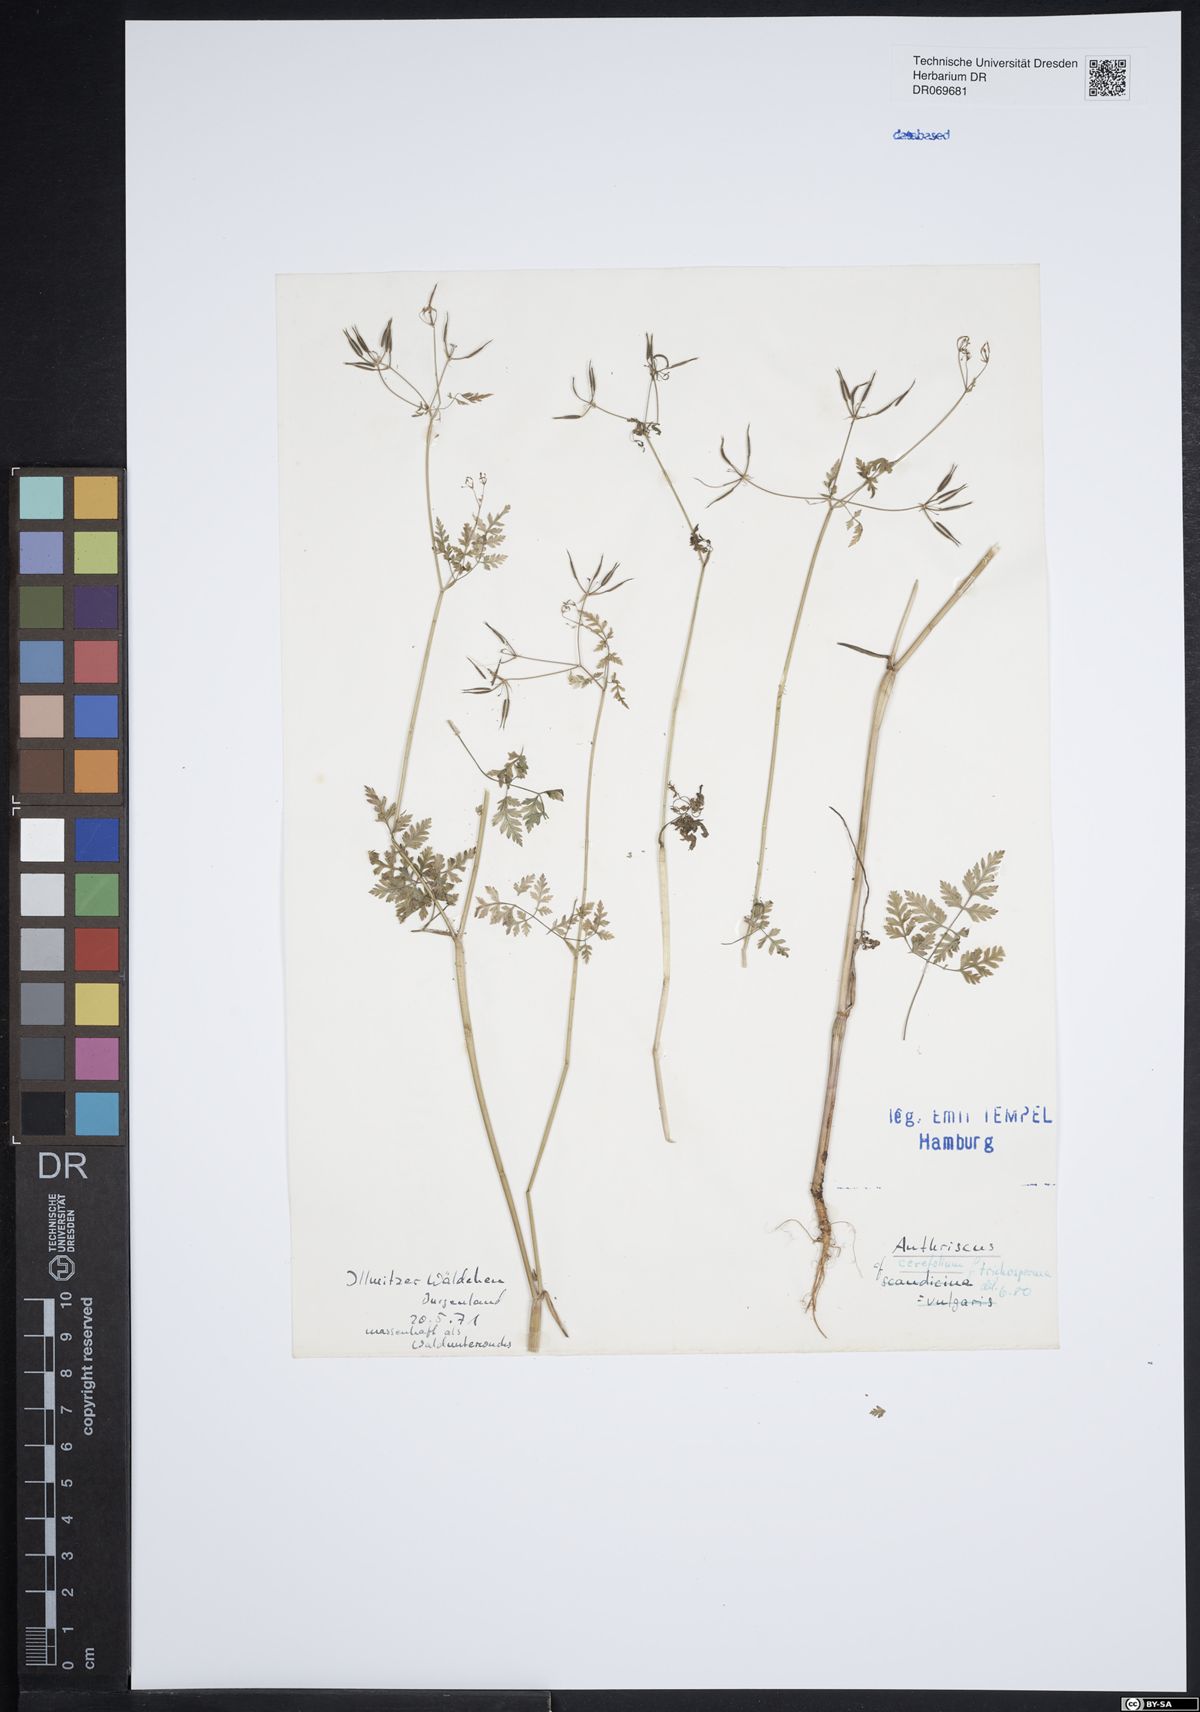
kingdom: Plantae
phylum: Tracheophyta
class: Magnoliopsida
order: Apiales
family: Apiaceae
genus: Anthriscus
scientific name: Anthriscus cerefolium
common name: Garden chervil
